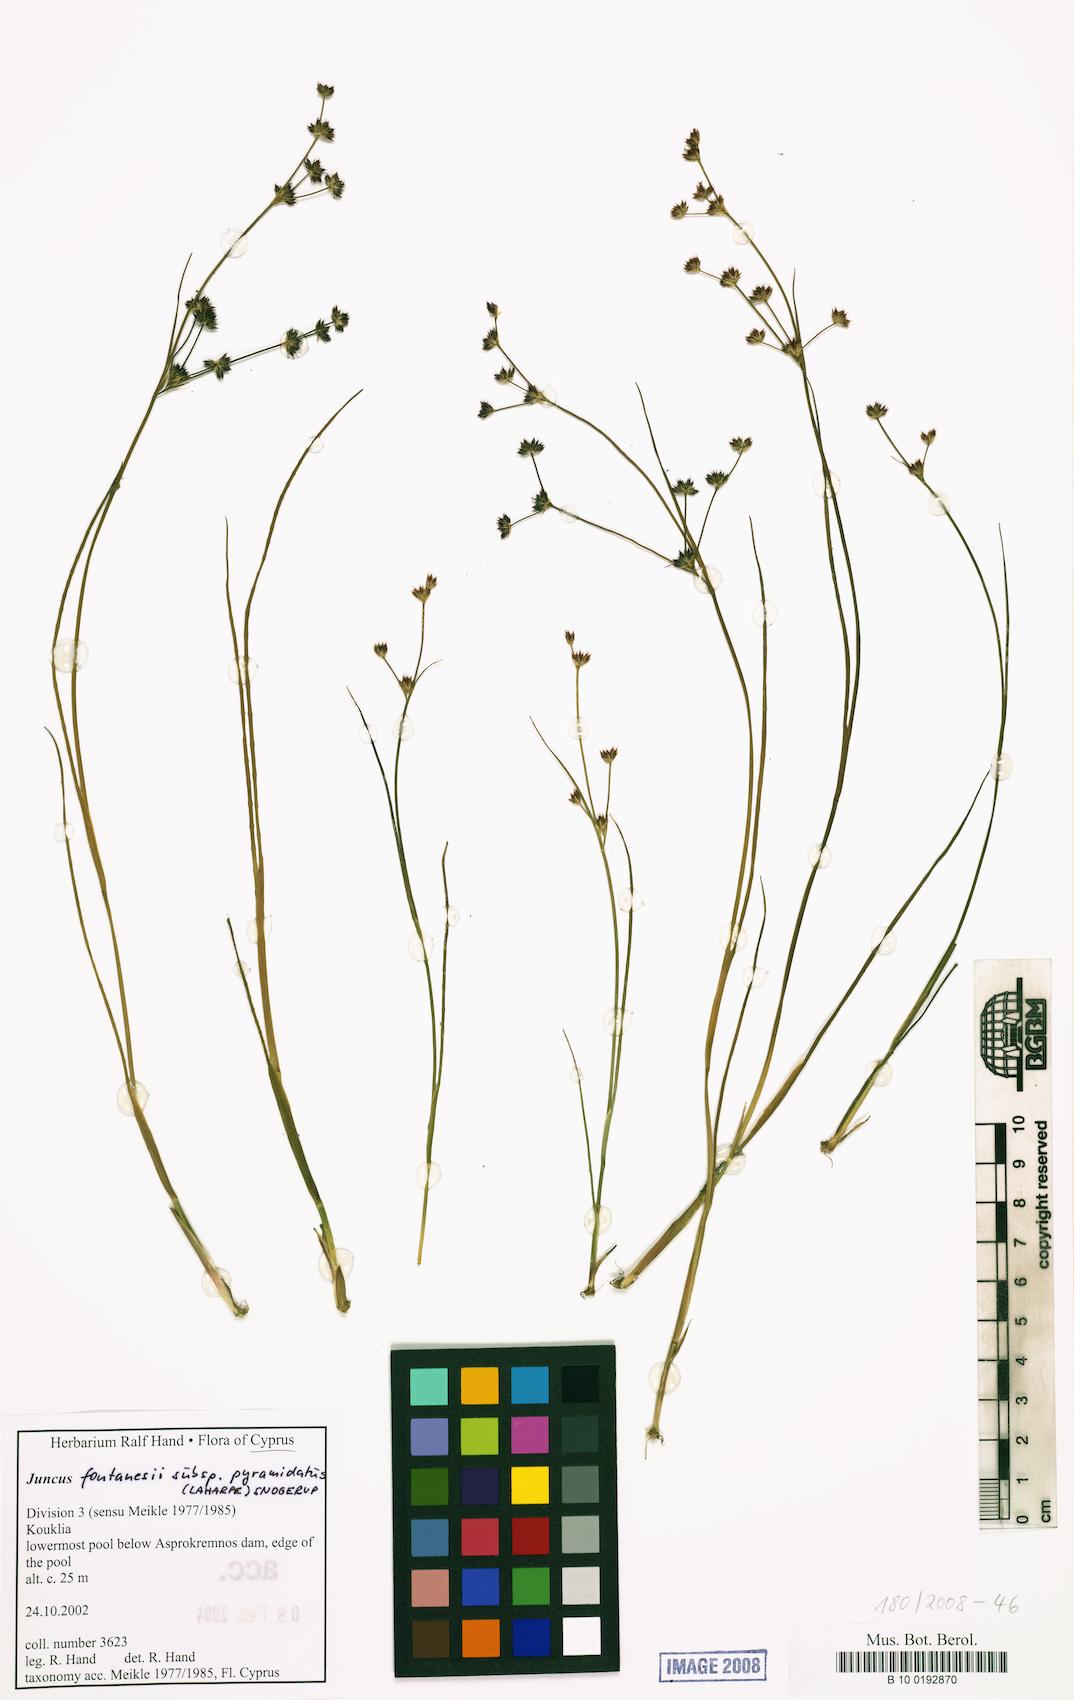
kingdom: Plantae
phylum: Tracheophyta
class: Liliopsida
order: Poales
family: Juncaceae
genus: Juncus
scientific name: Juncus fontanesii
